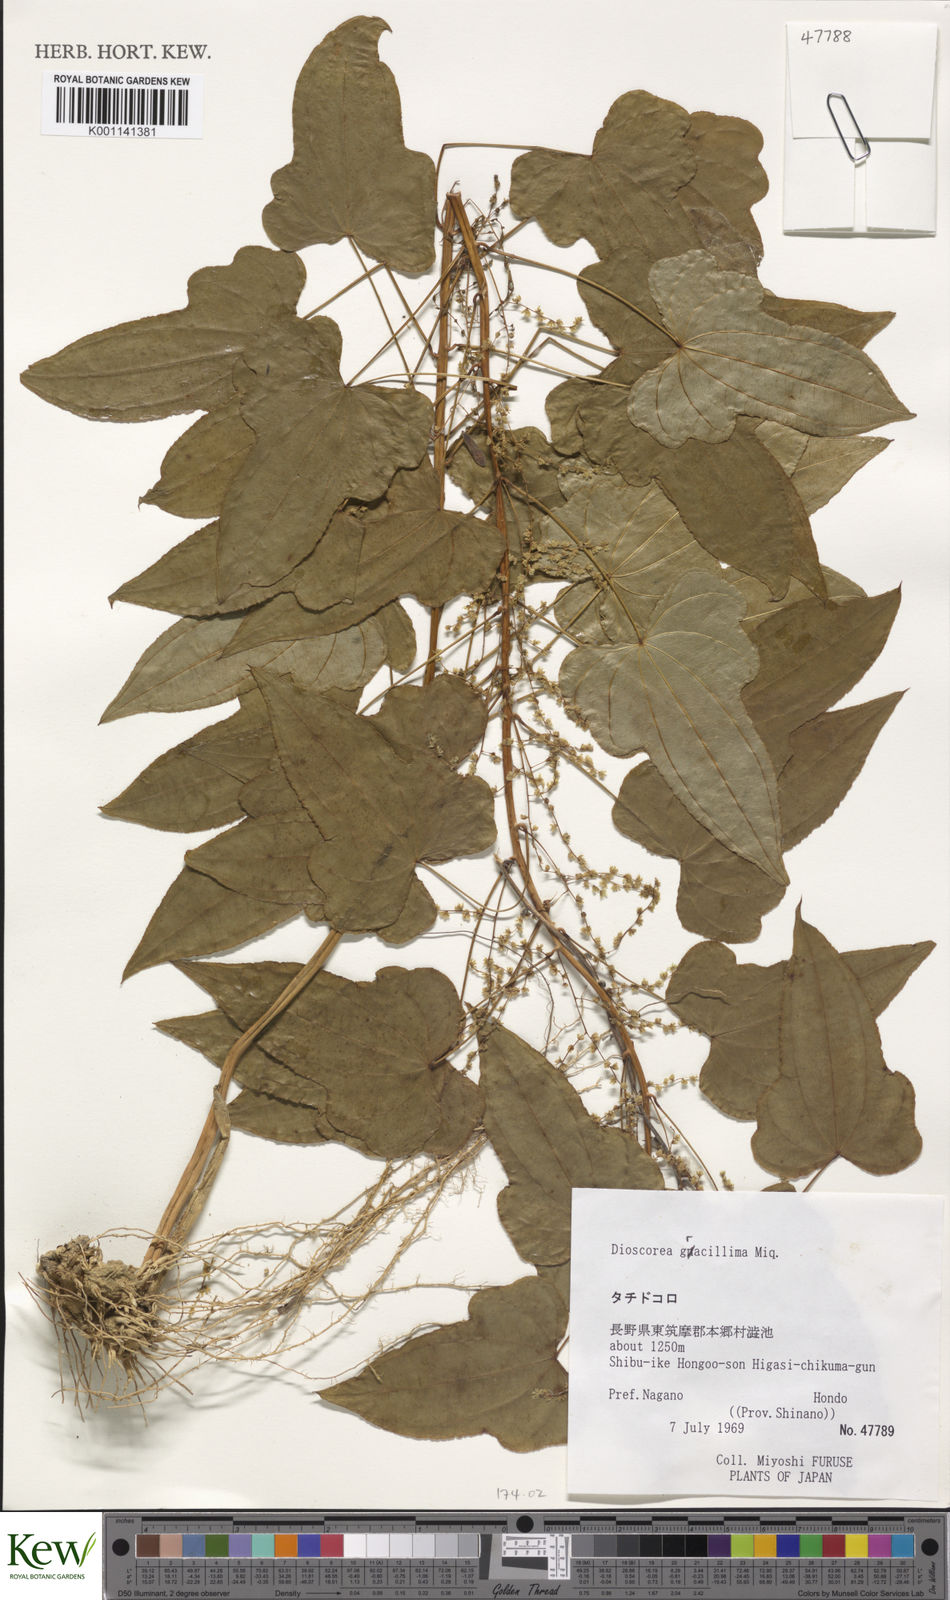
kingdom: Plantae
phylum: Tracheophyta
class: Liliopsida
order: Dioscoreales
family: Dioscoreaceae
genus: Dioscorea
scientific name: Dioscorea gracillima
